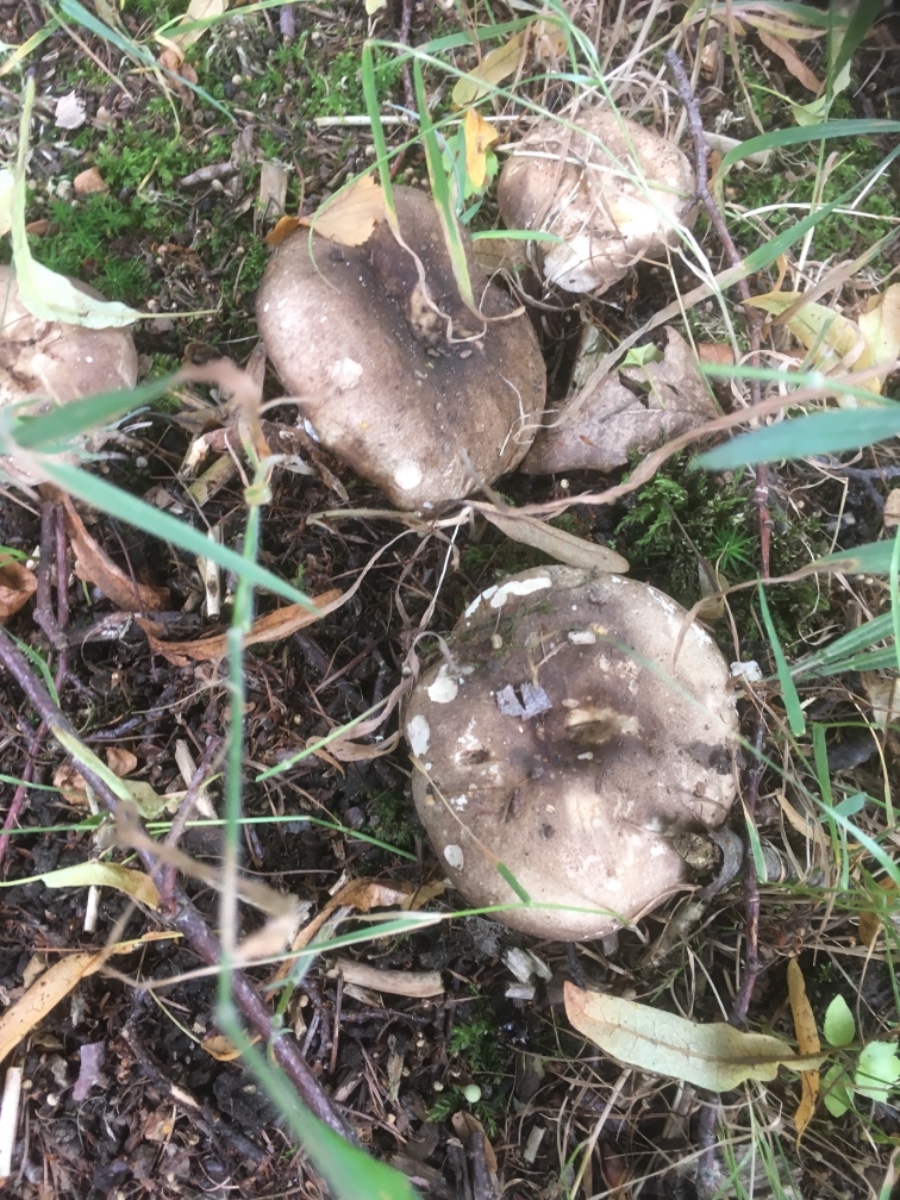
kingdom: Fungi
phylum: Basidiomycota
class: Agaricomycetes
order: Russulales
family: Russulaceae
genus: Russula
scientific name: Russula adusta
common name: sværtende skørhat
